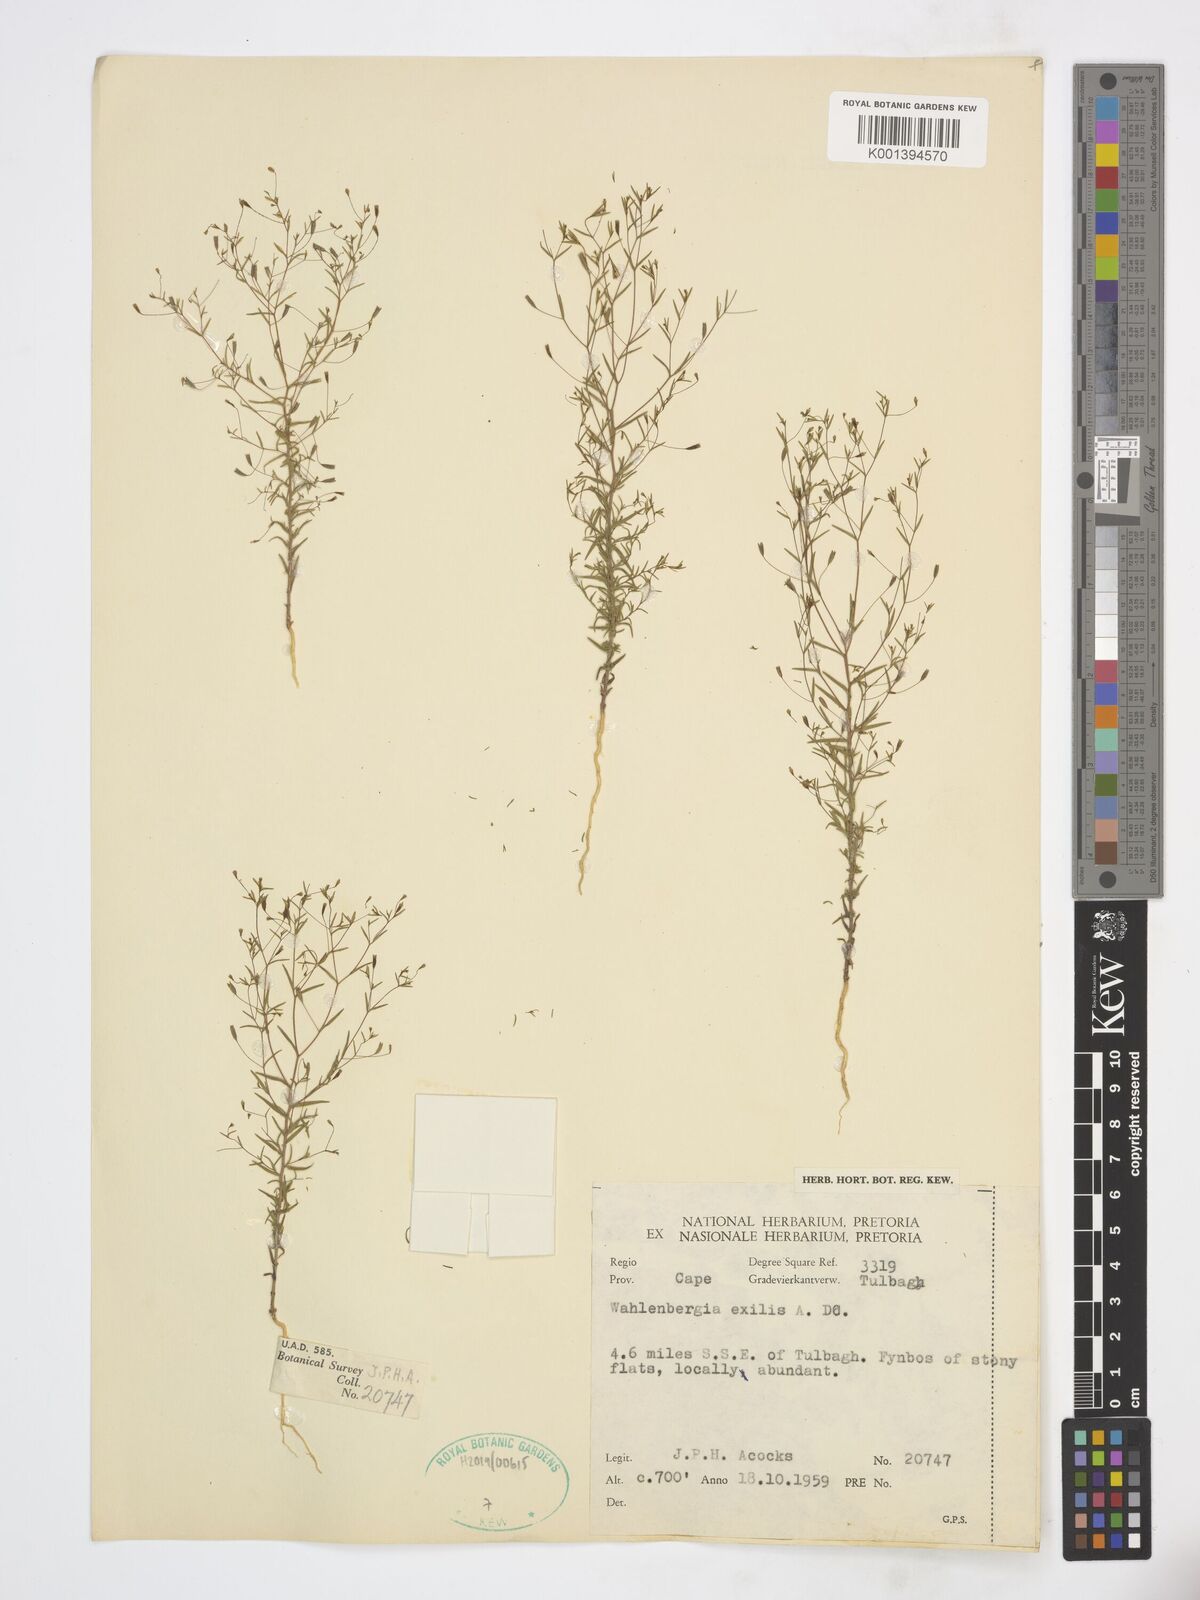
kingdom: Plantae
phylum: Tracheophyta
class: Magnoliopsida
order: Asterales
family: Campanulaceae
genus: Wahlenbergia
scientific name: Wahlenbergia exilis
